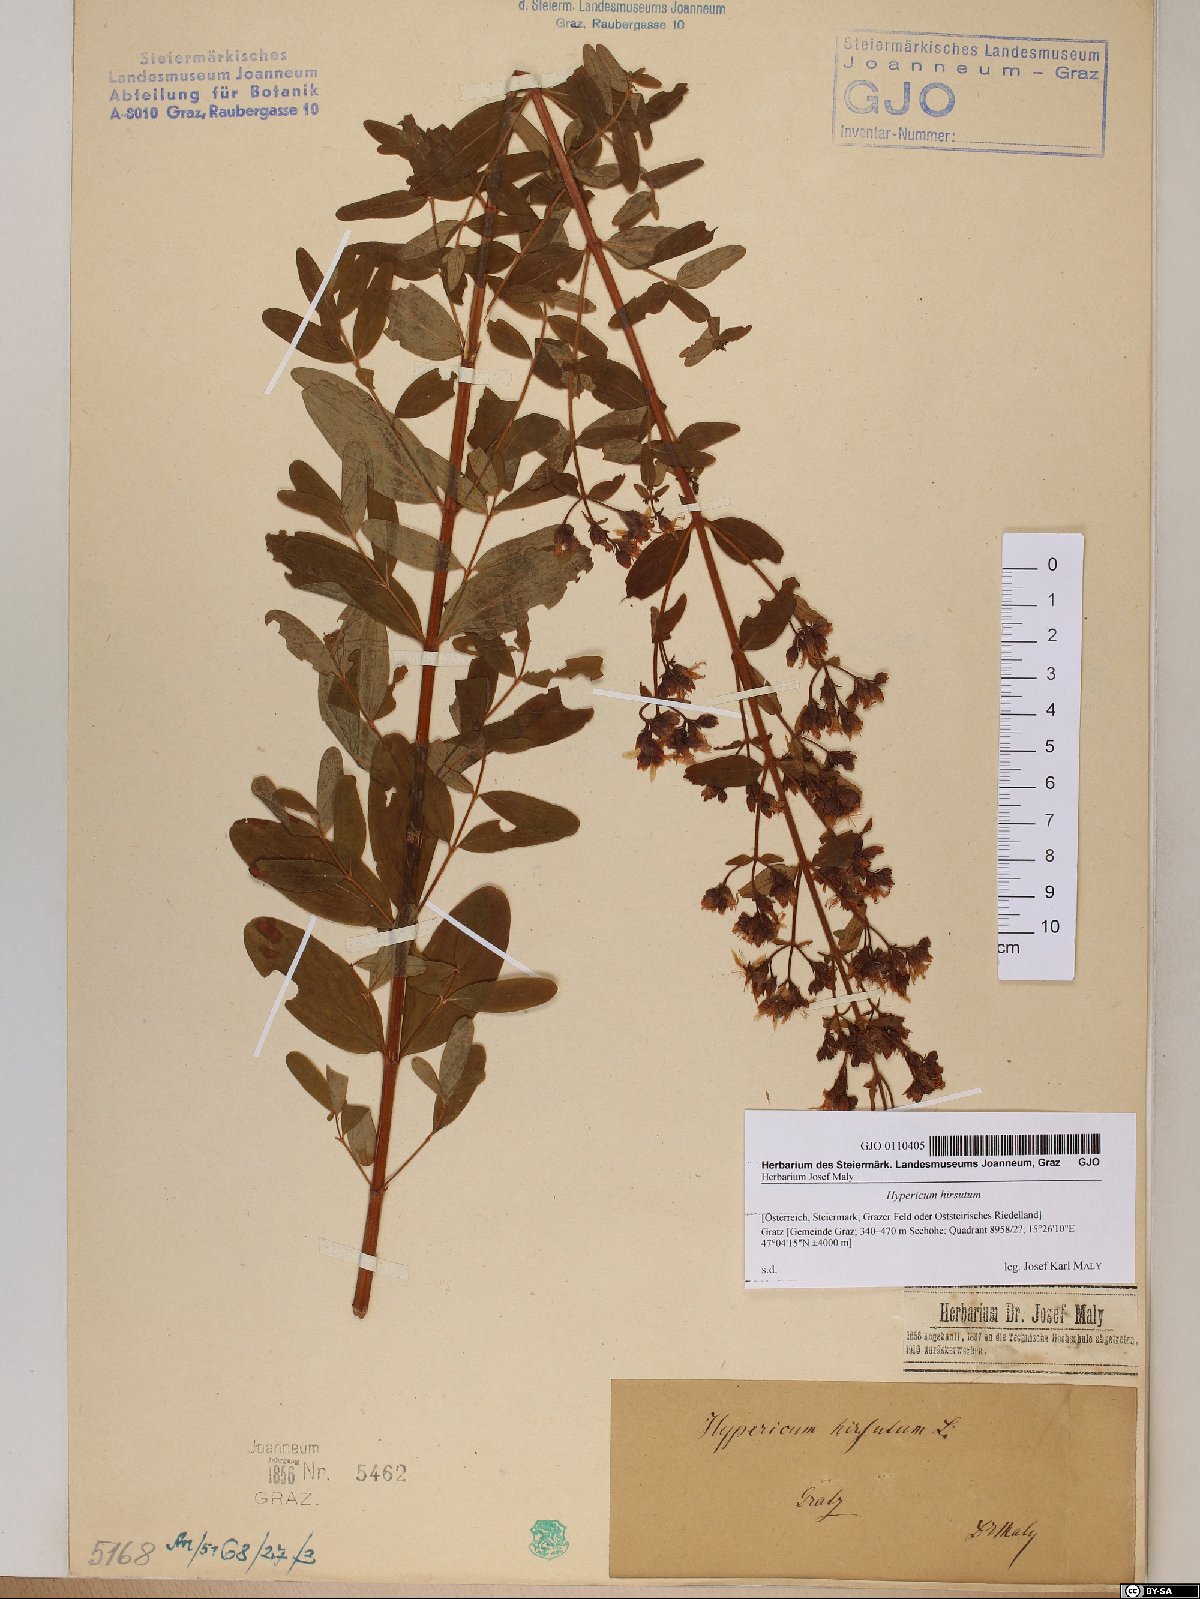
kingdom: Plantae
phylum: Tracheophyta
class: Magnoliopsida
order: Malpighiales
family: Hypericaceae
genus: Hypericum
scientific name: Hypericum hirsutum
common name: Hairy st. john's-wort
